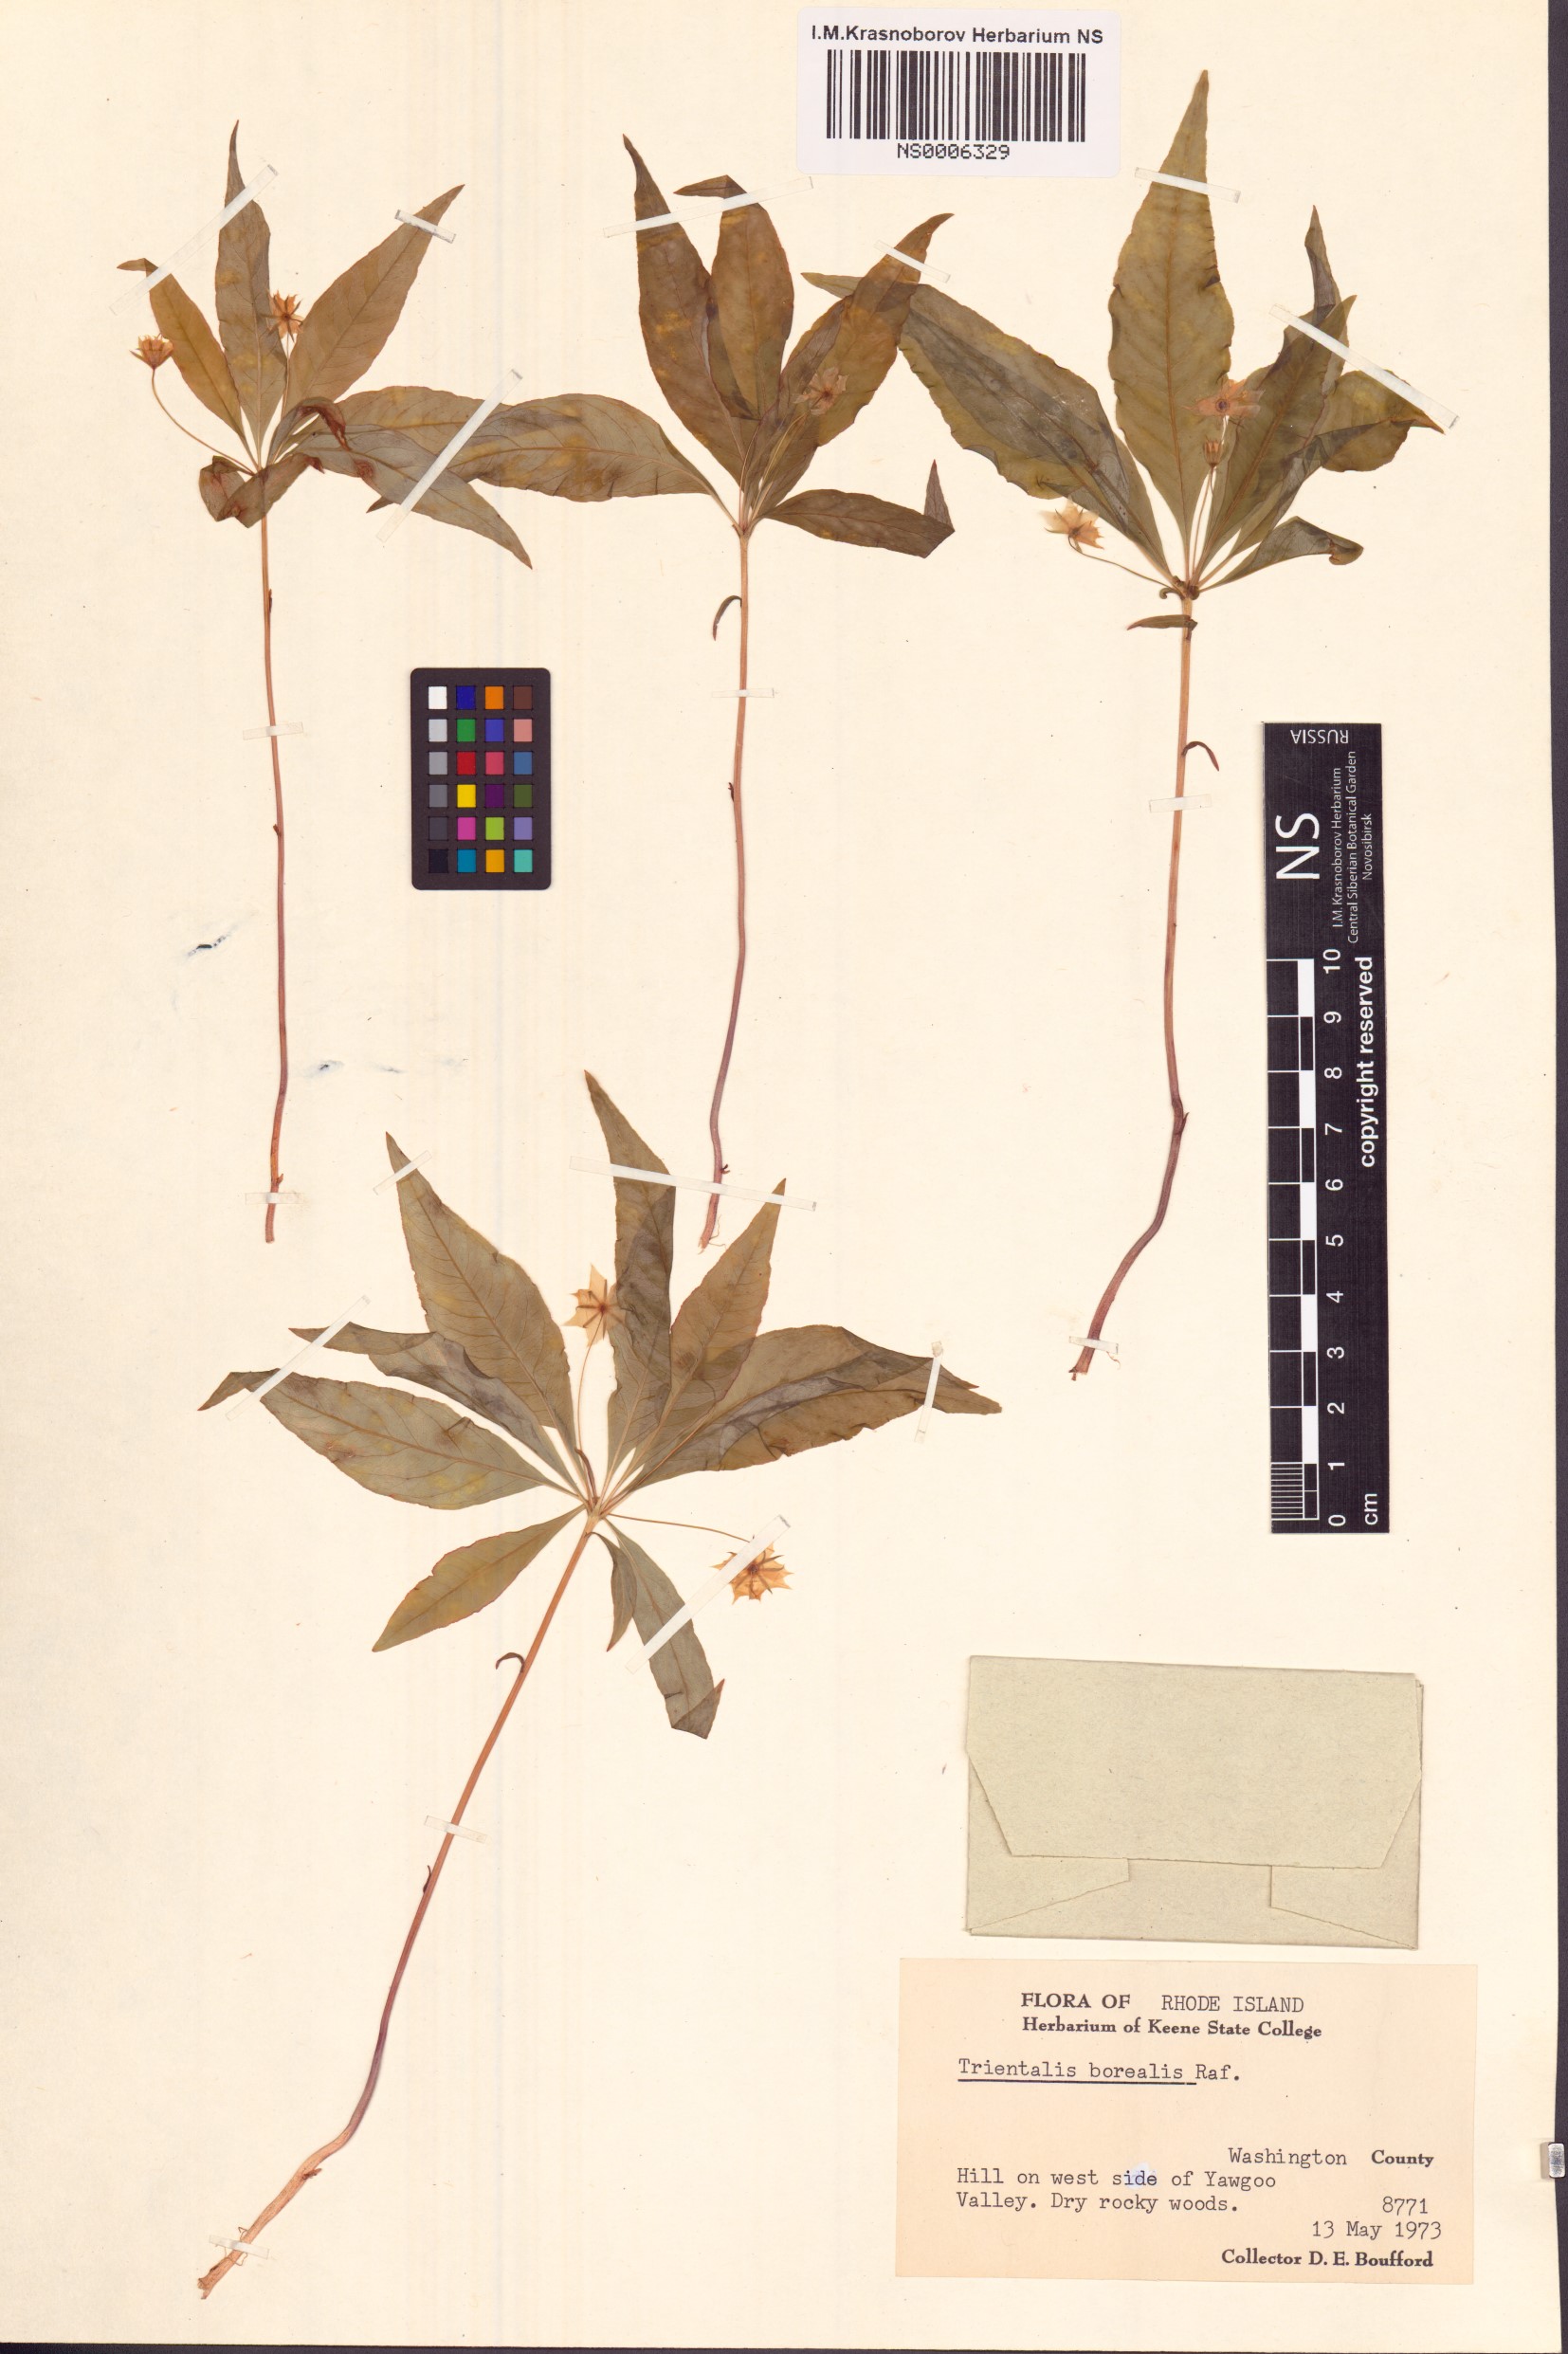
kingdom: Plantae
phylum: Tracheophyta
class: Magnoliopsida
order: Ericales
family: Primulaceae
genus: Lysimachia
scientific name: Lysimachia borealis
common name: American starflower
